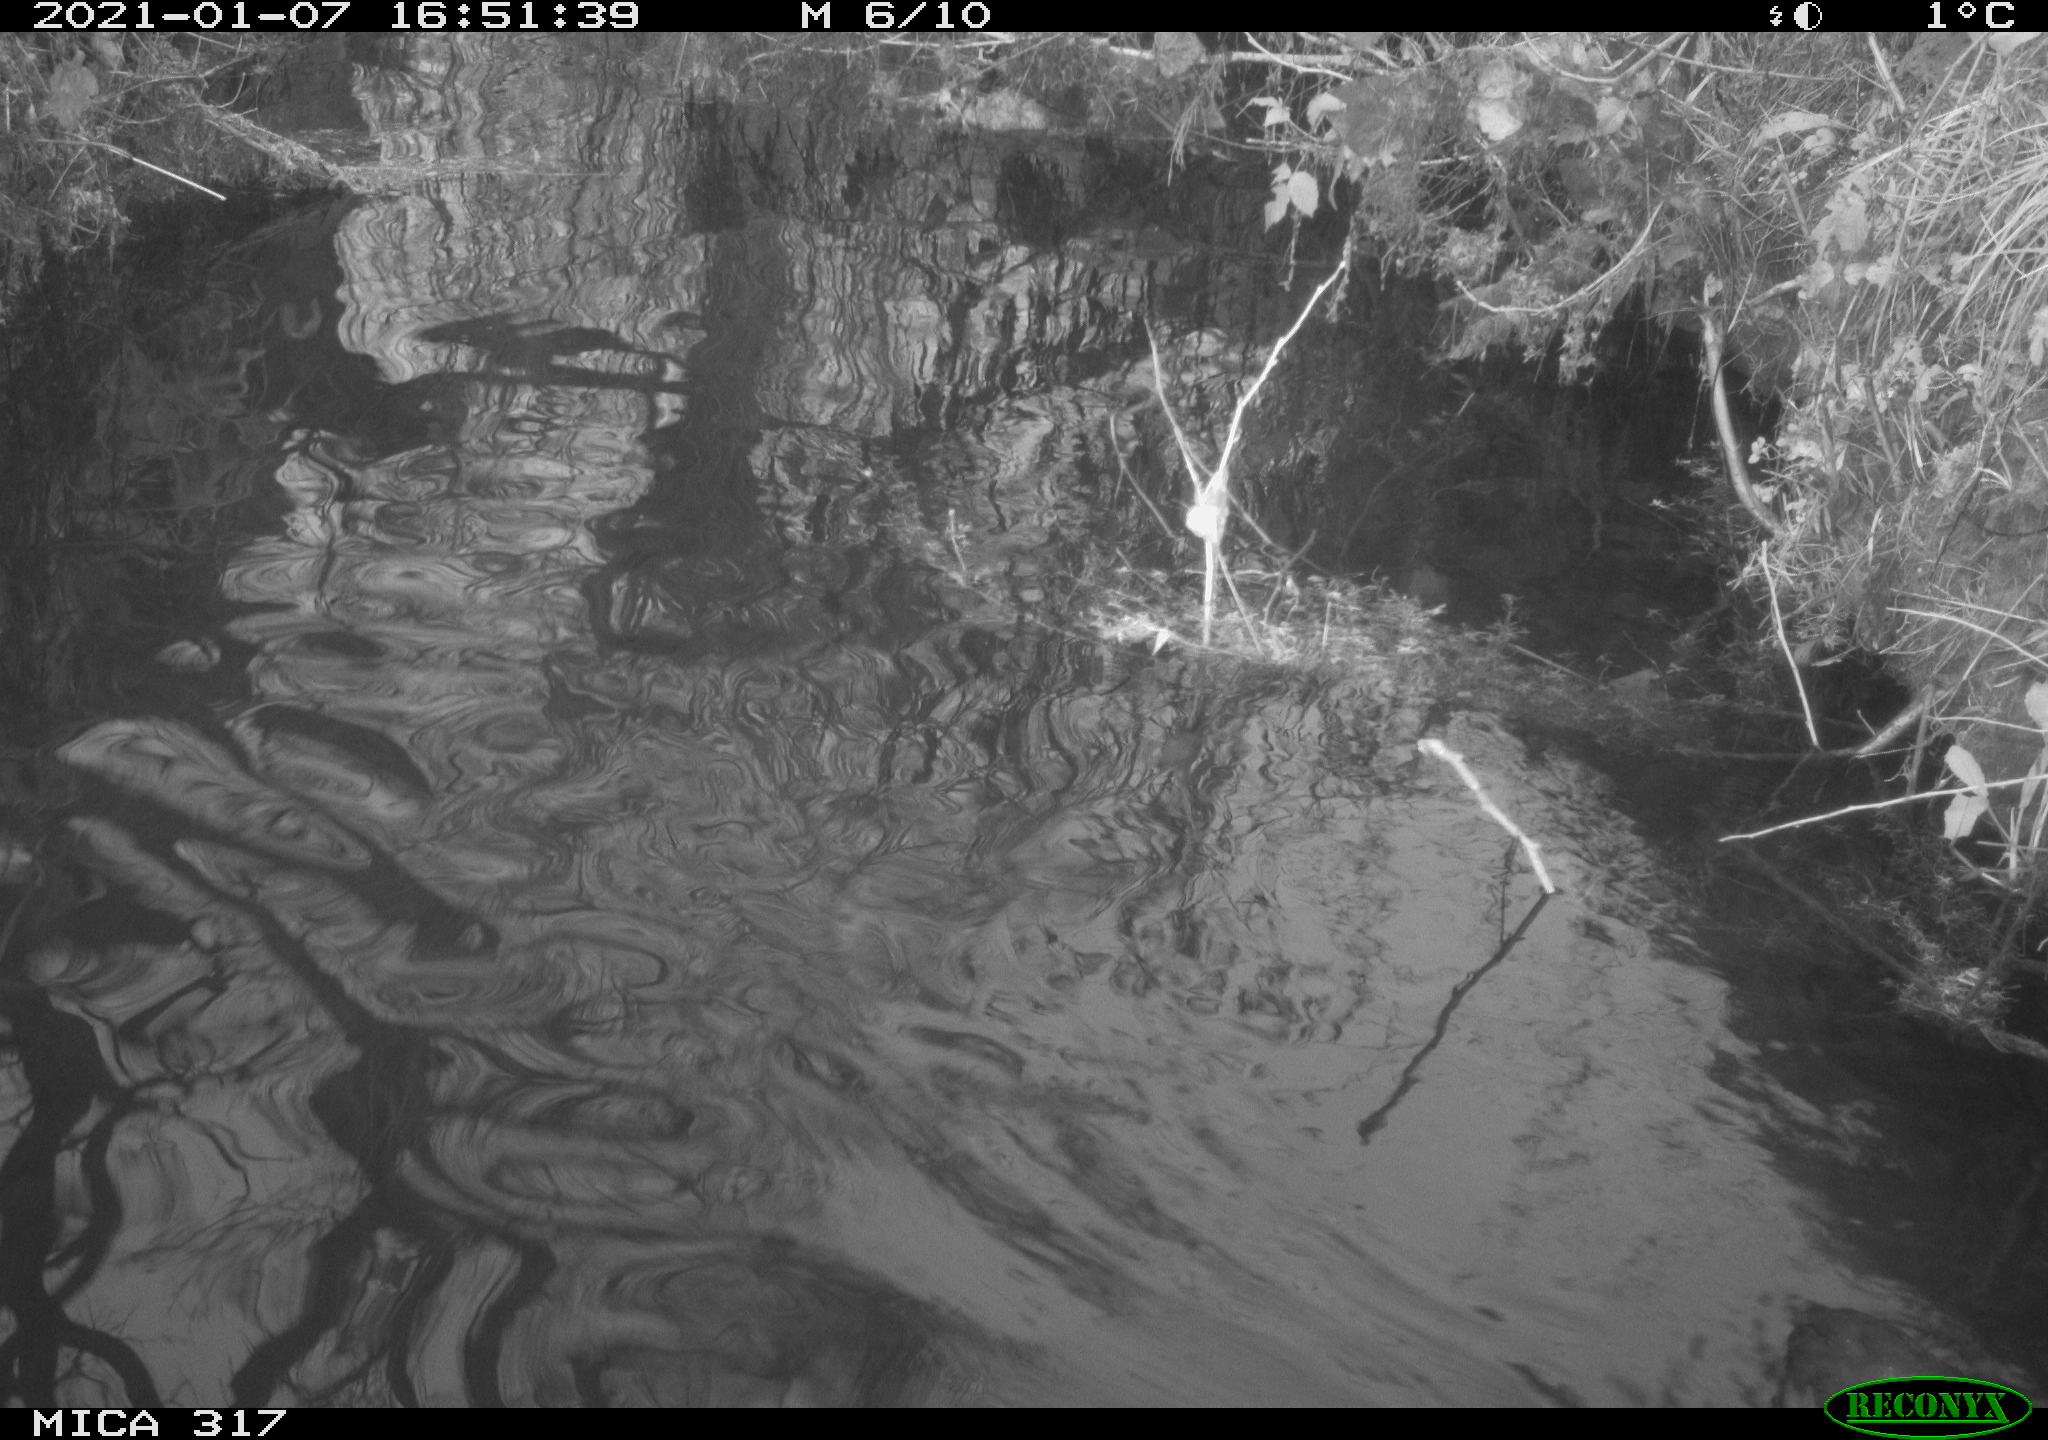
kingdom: Animalia
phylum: Chordata
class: Aves
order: Gruiformes
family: Rallidae
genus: Fulica
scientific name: Fulica atra
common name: Eurasian coot
